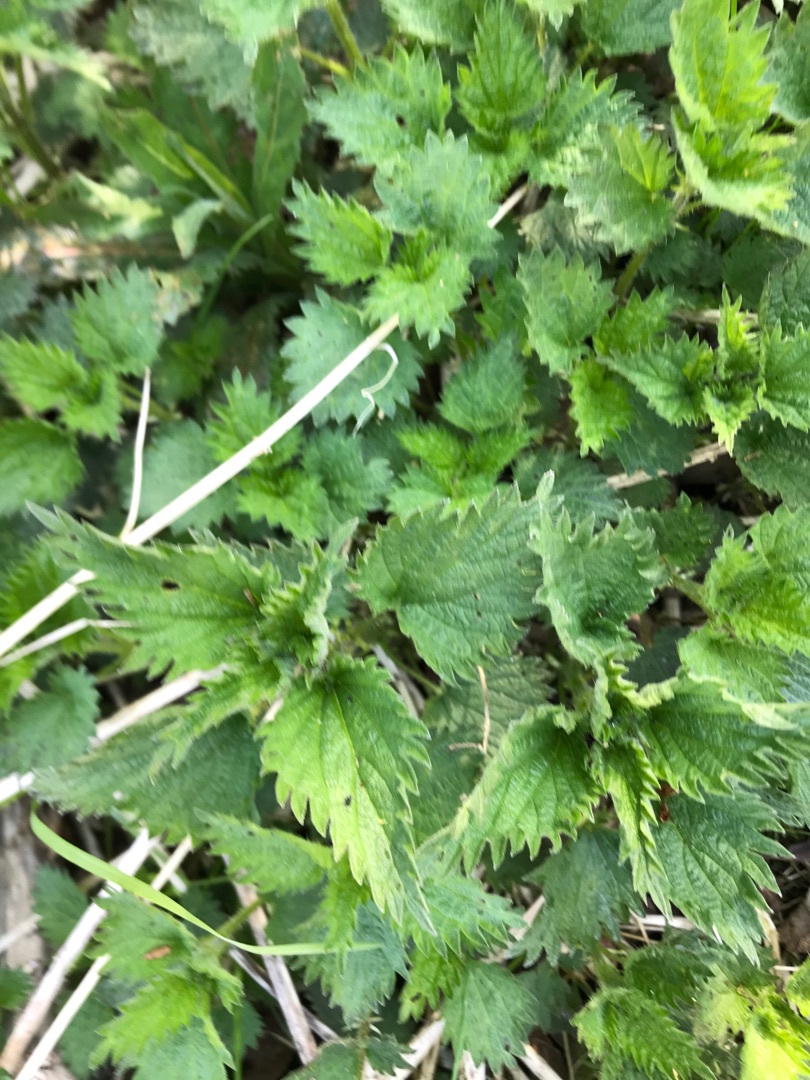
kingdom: Plantae
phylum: Tracheophyta
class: Magnoliopsida
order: Rosales
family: Urticaceae
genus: Urtica
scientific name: Urtica dioica
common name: Stor nælde
